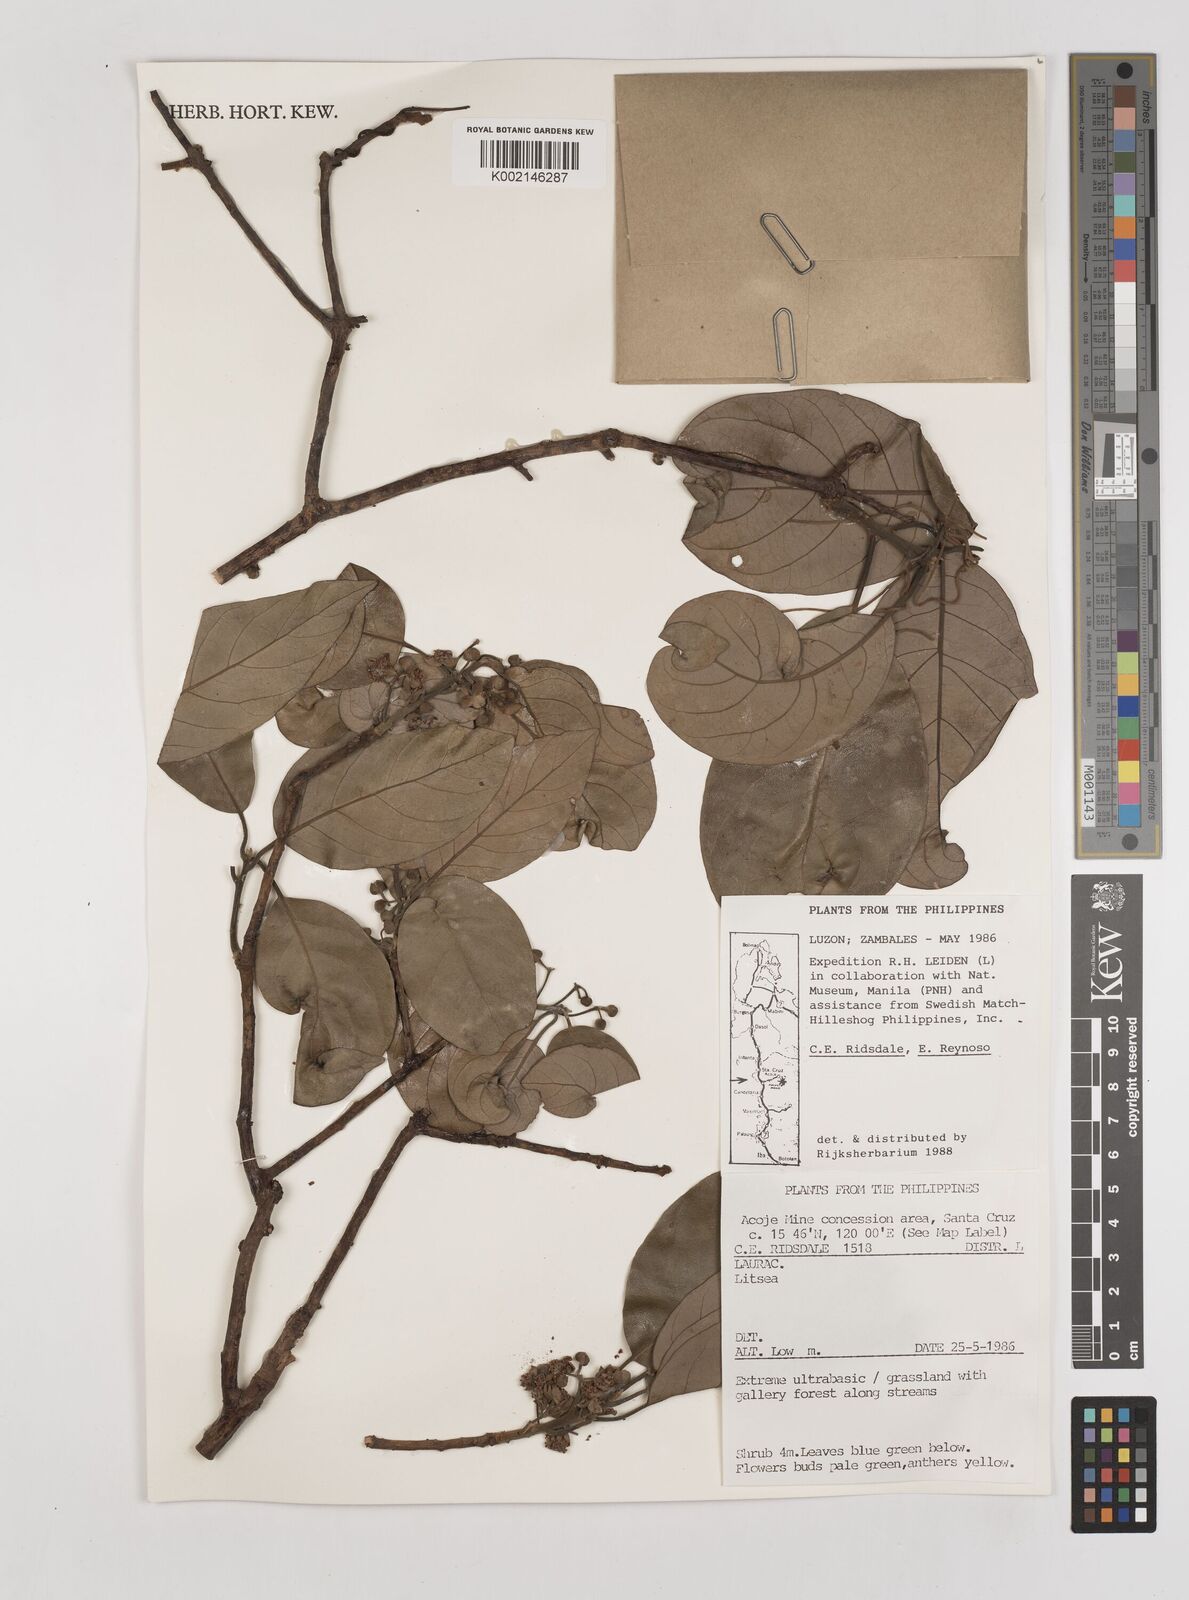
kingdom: Plantae
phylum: Tracheophyta
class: Magnoliopsida
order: Laurales
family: Lauraceae
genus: Litsea
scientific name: Litsea
